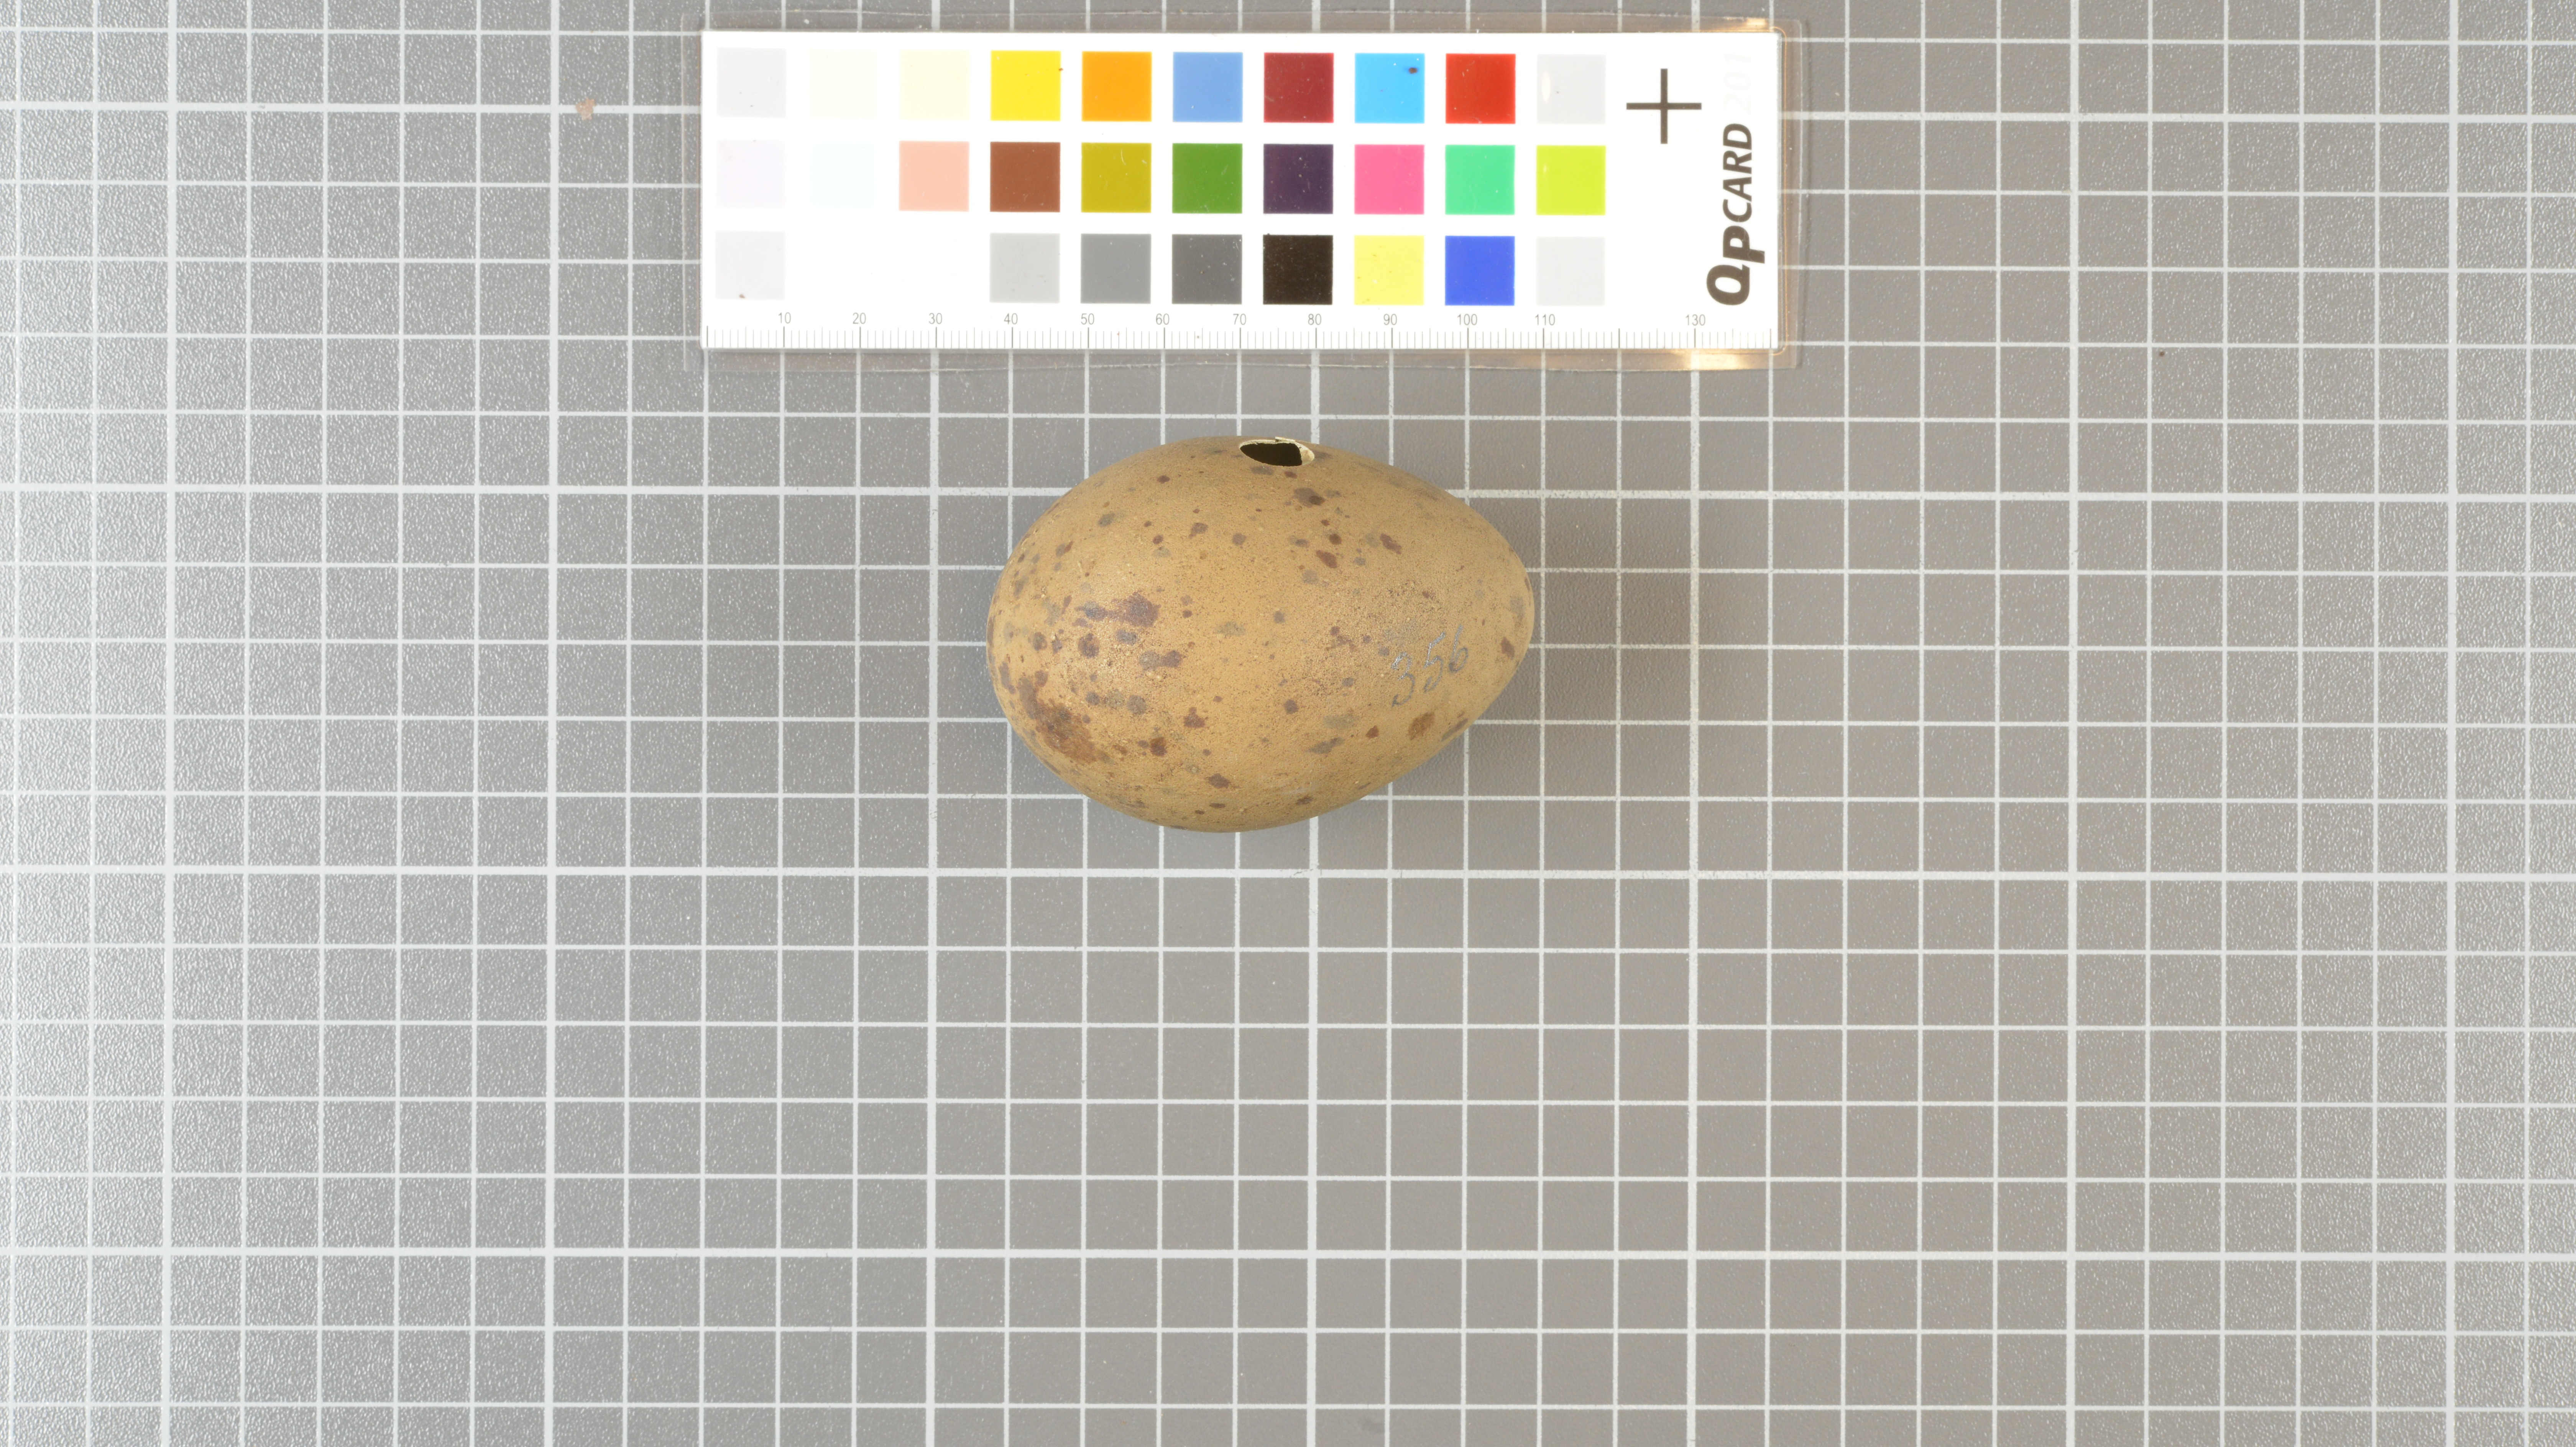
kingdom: Animalia
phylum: Chordata
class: Aves
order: Charadriiformes
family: Stercorariidae
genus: Stercorarius
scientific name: Stercorarius antarcticus
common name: Brown skua
